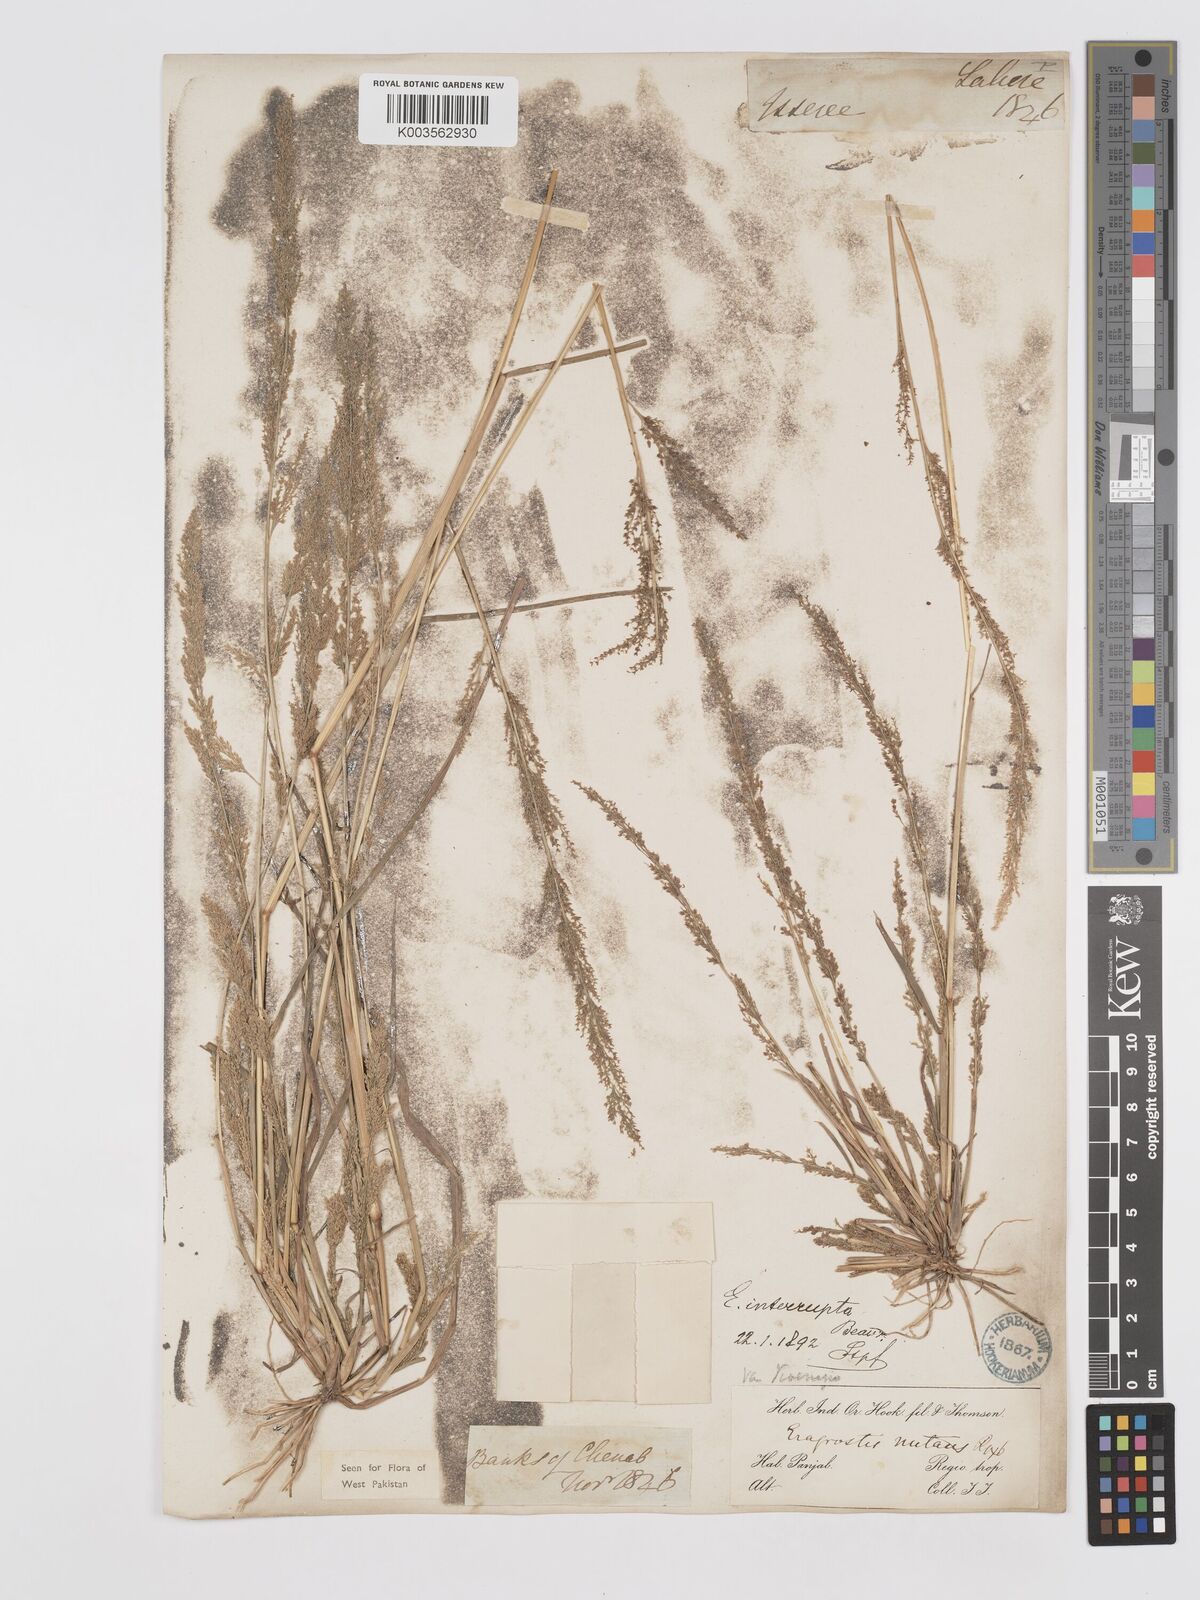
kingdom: Plantae
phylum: Tracheophyta
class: Liliopsida
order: Poales
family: Poaceae
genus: Eragrostis
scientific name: Eragrostis japonica
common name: Pond lovegrass
